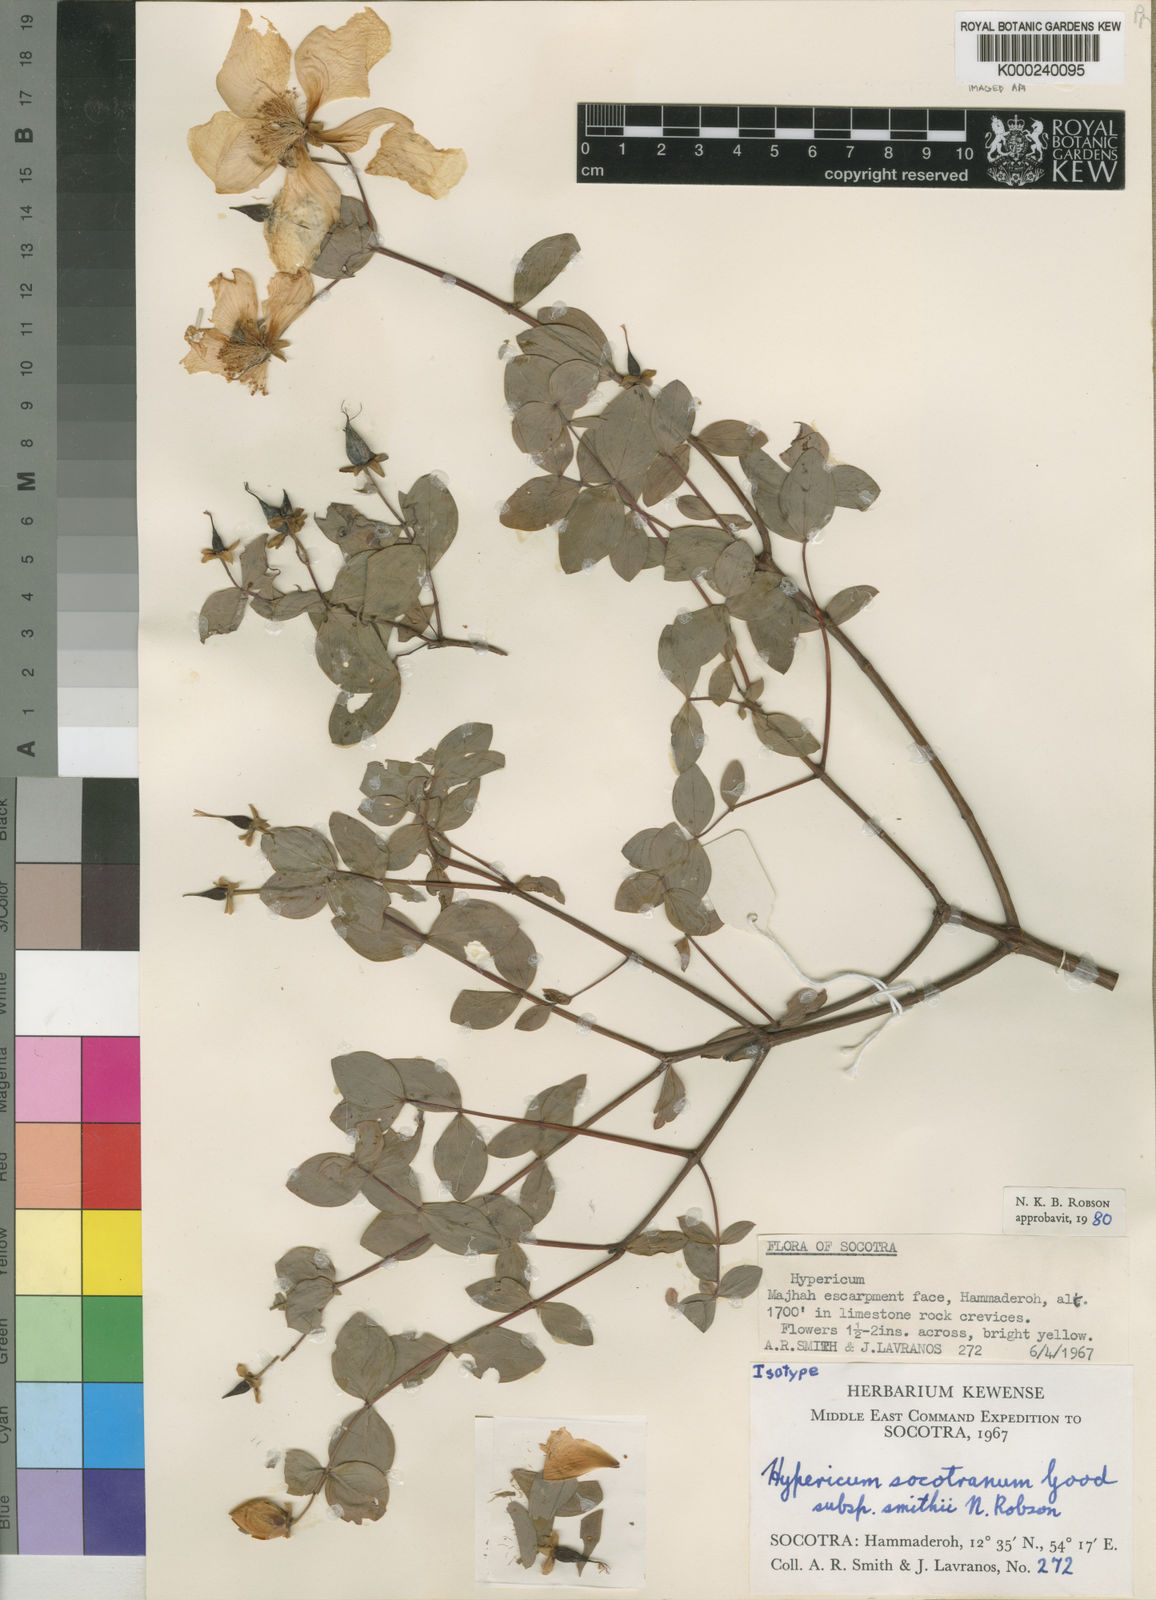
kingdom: Plantae
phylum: Tracheophyta
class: Magnoliopsida
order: Malpighiales
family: Hypericaceae
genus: Hypericum
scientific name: Hypericum smithii
